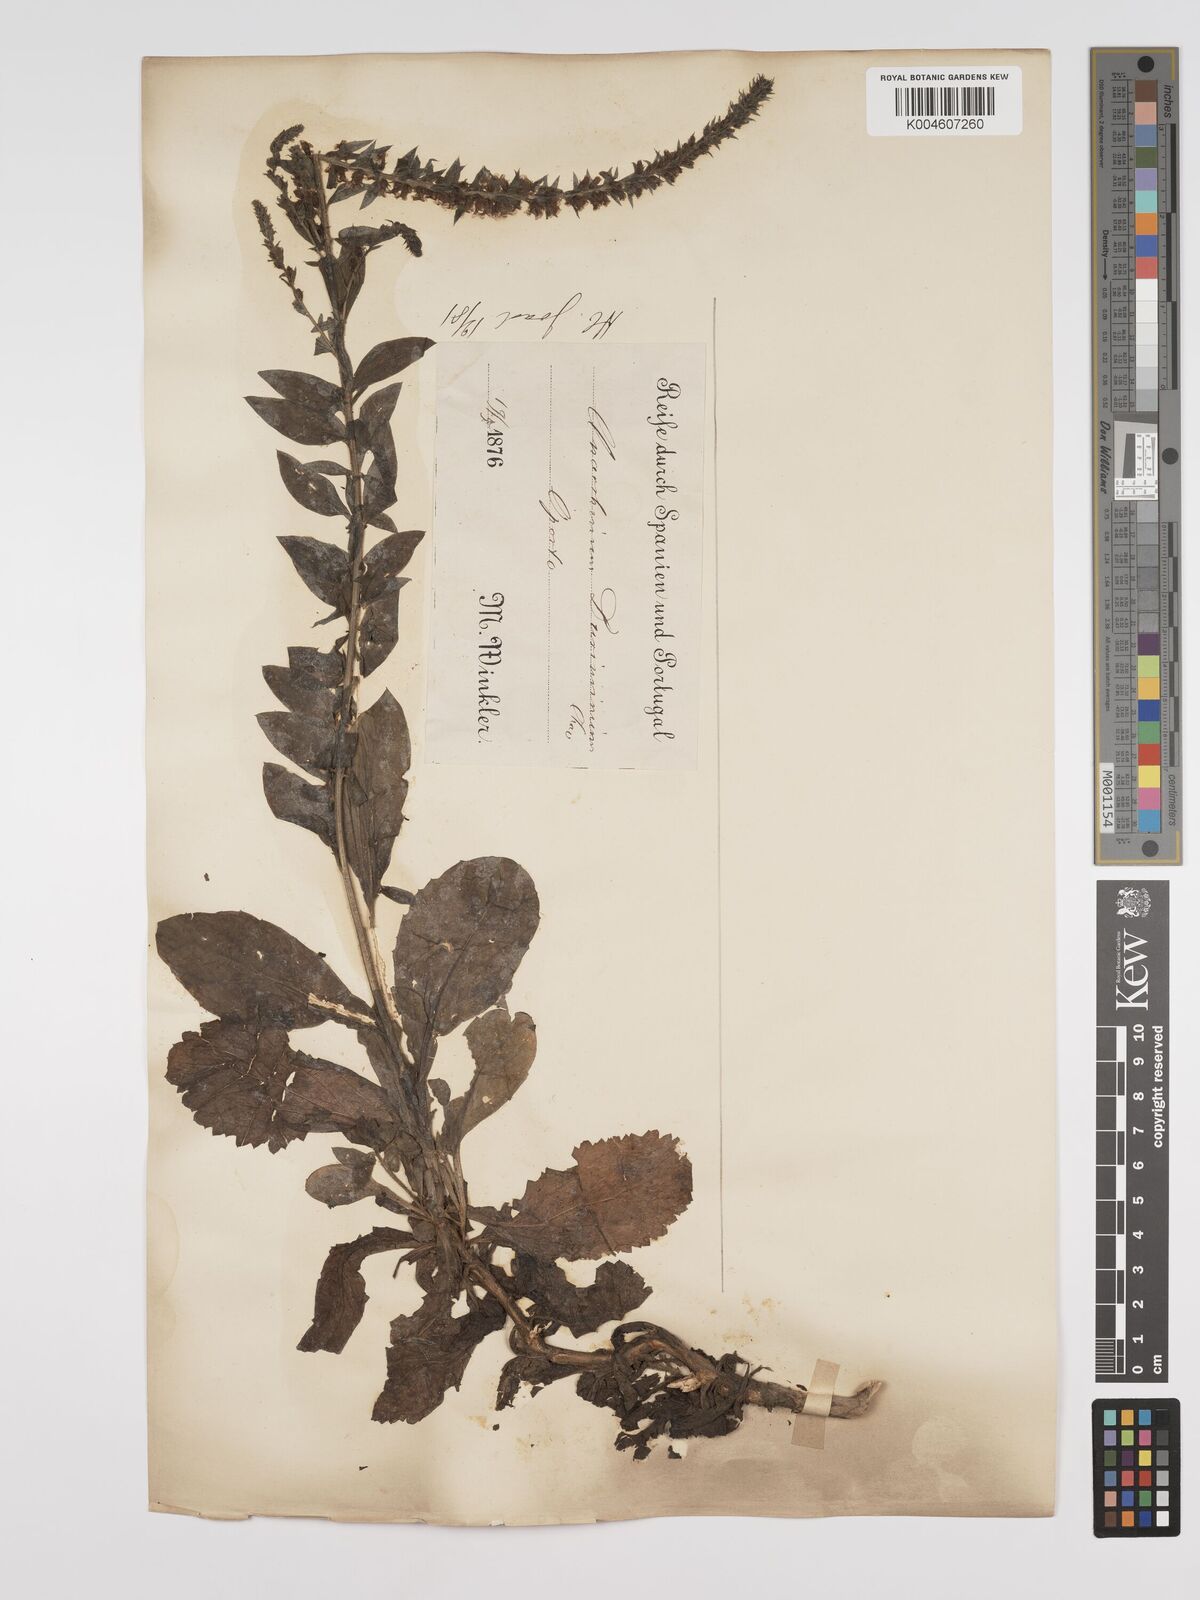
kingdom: Plantae
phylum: Tracheophyta
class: Magnoliopsida
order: Lamiales
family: Plantaginaceae
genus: Anarrhinum
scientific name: Anarrhinum duriminium
